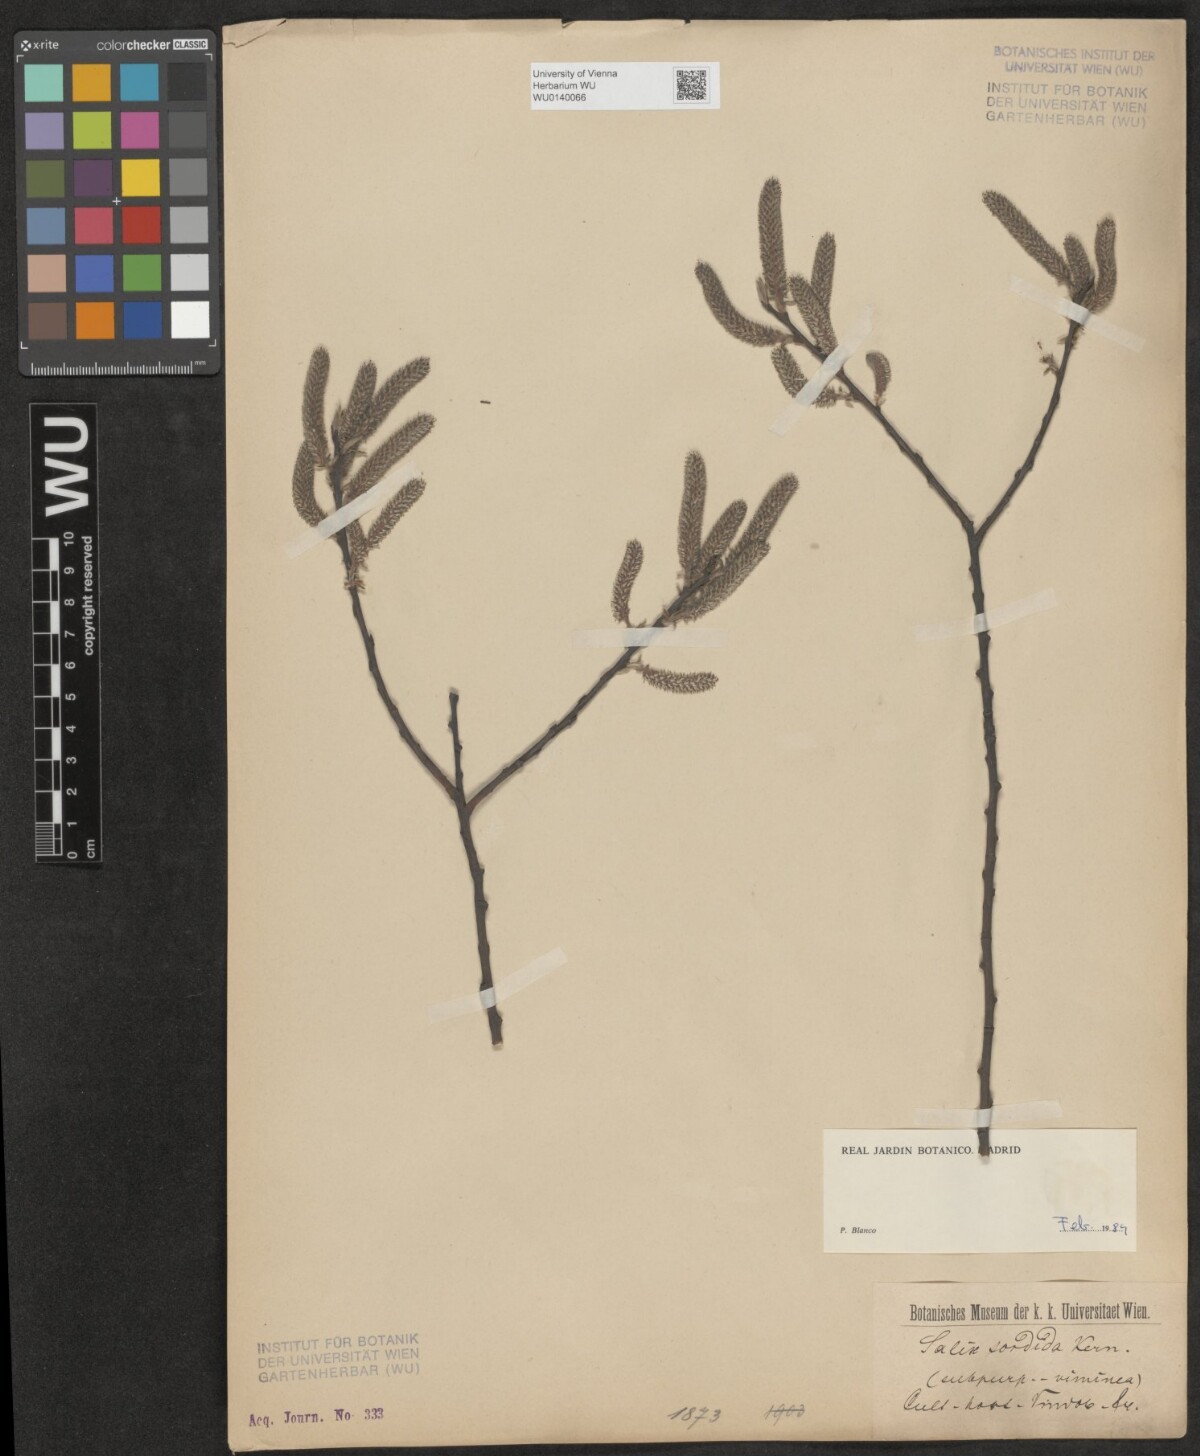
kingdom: Plantae
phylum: Tracheophyta
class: Magnoliopsida
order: Malpighiales
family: Salicaceae
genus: Salix
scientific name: Salix sordida
